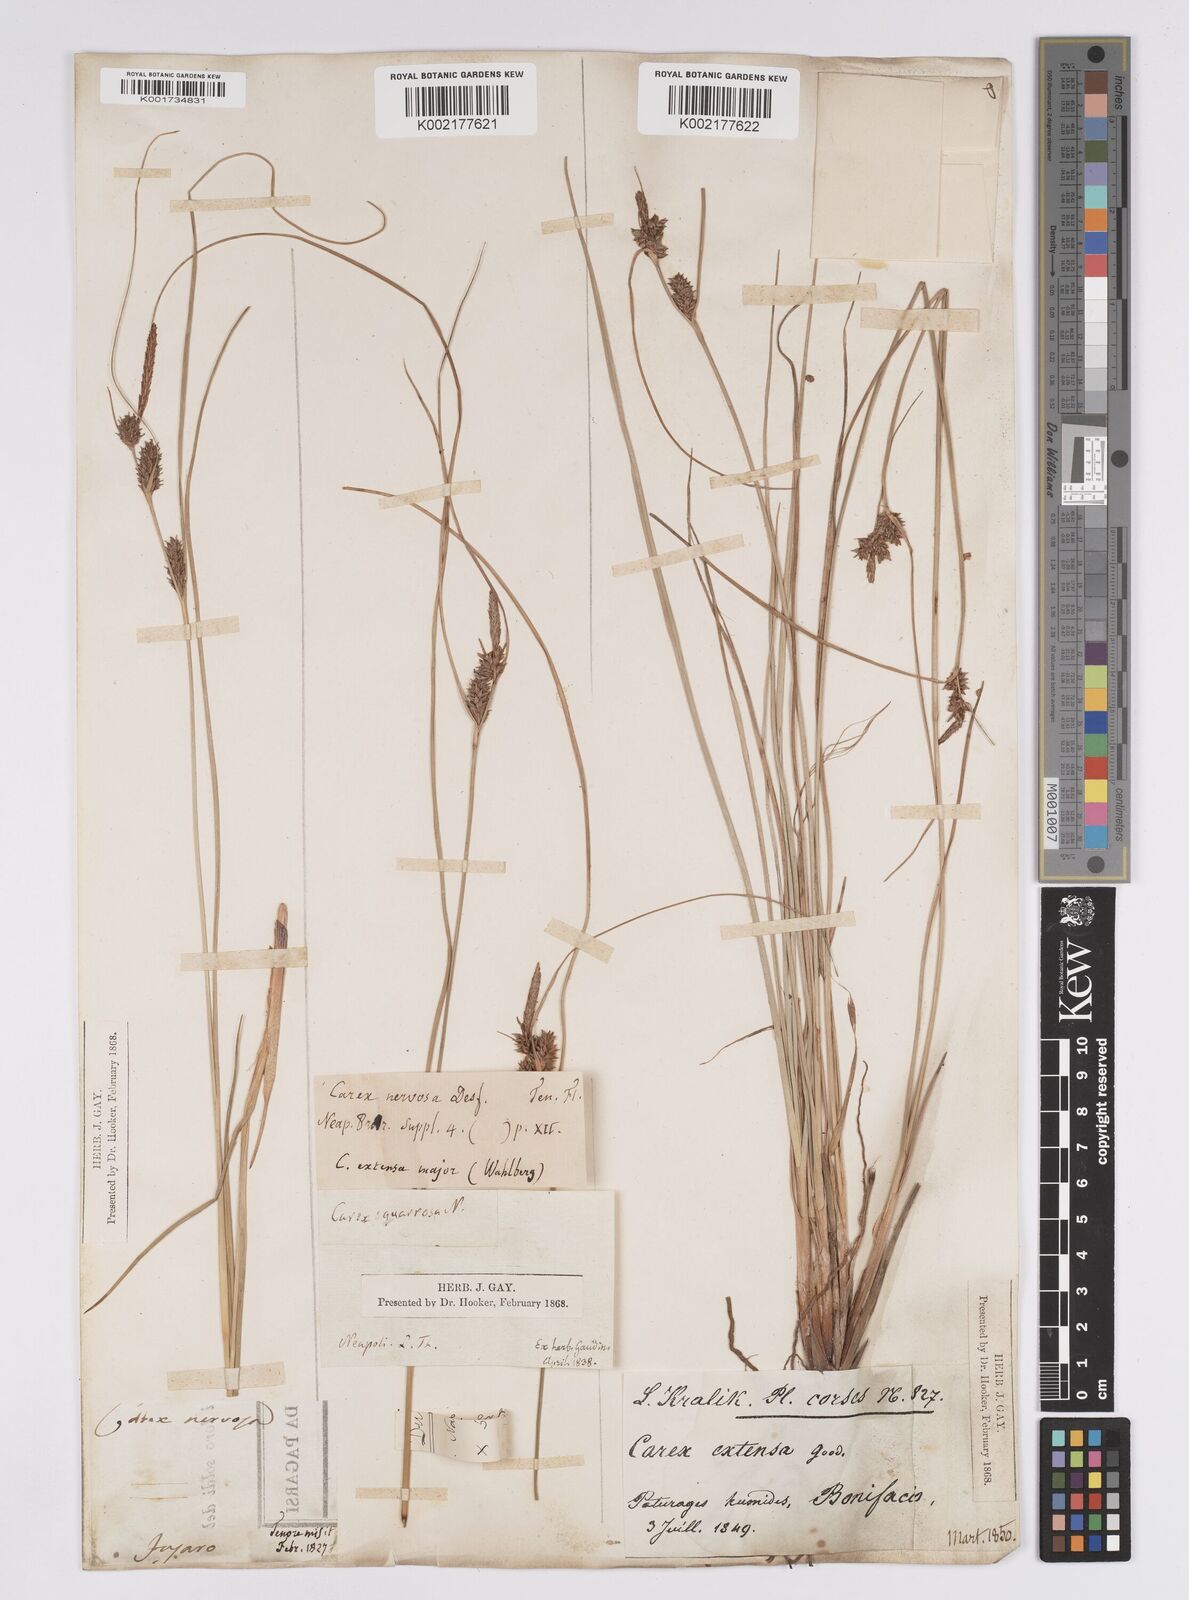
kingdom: Plantae
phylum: Tracheophyta
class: Liliopsida
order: Poales
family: Cyperaceae
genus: Carex
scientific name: Carex extensa
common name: Long-bracted sedge
